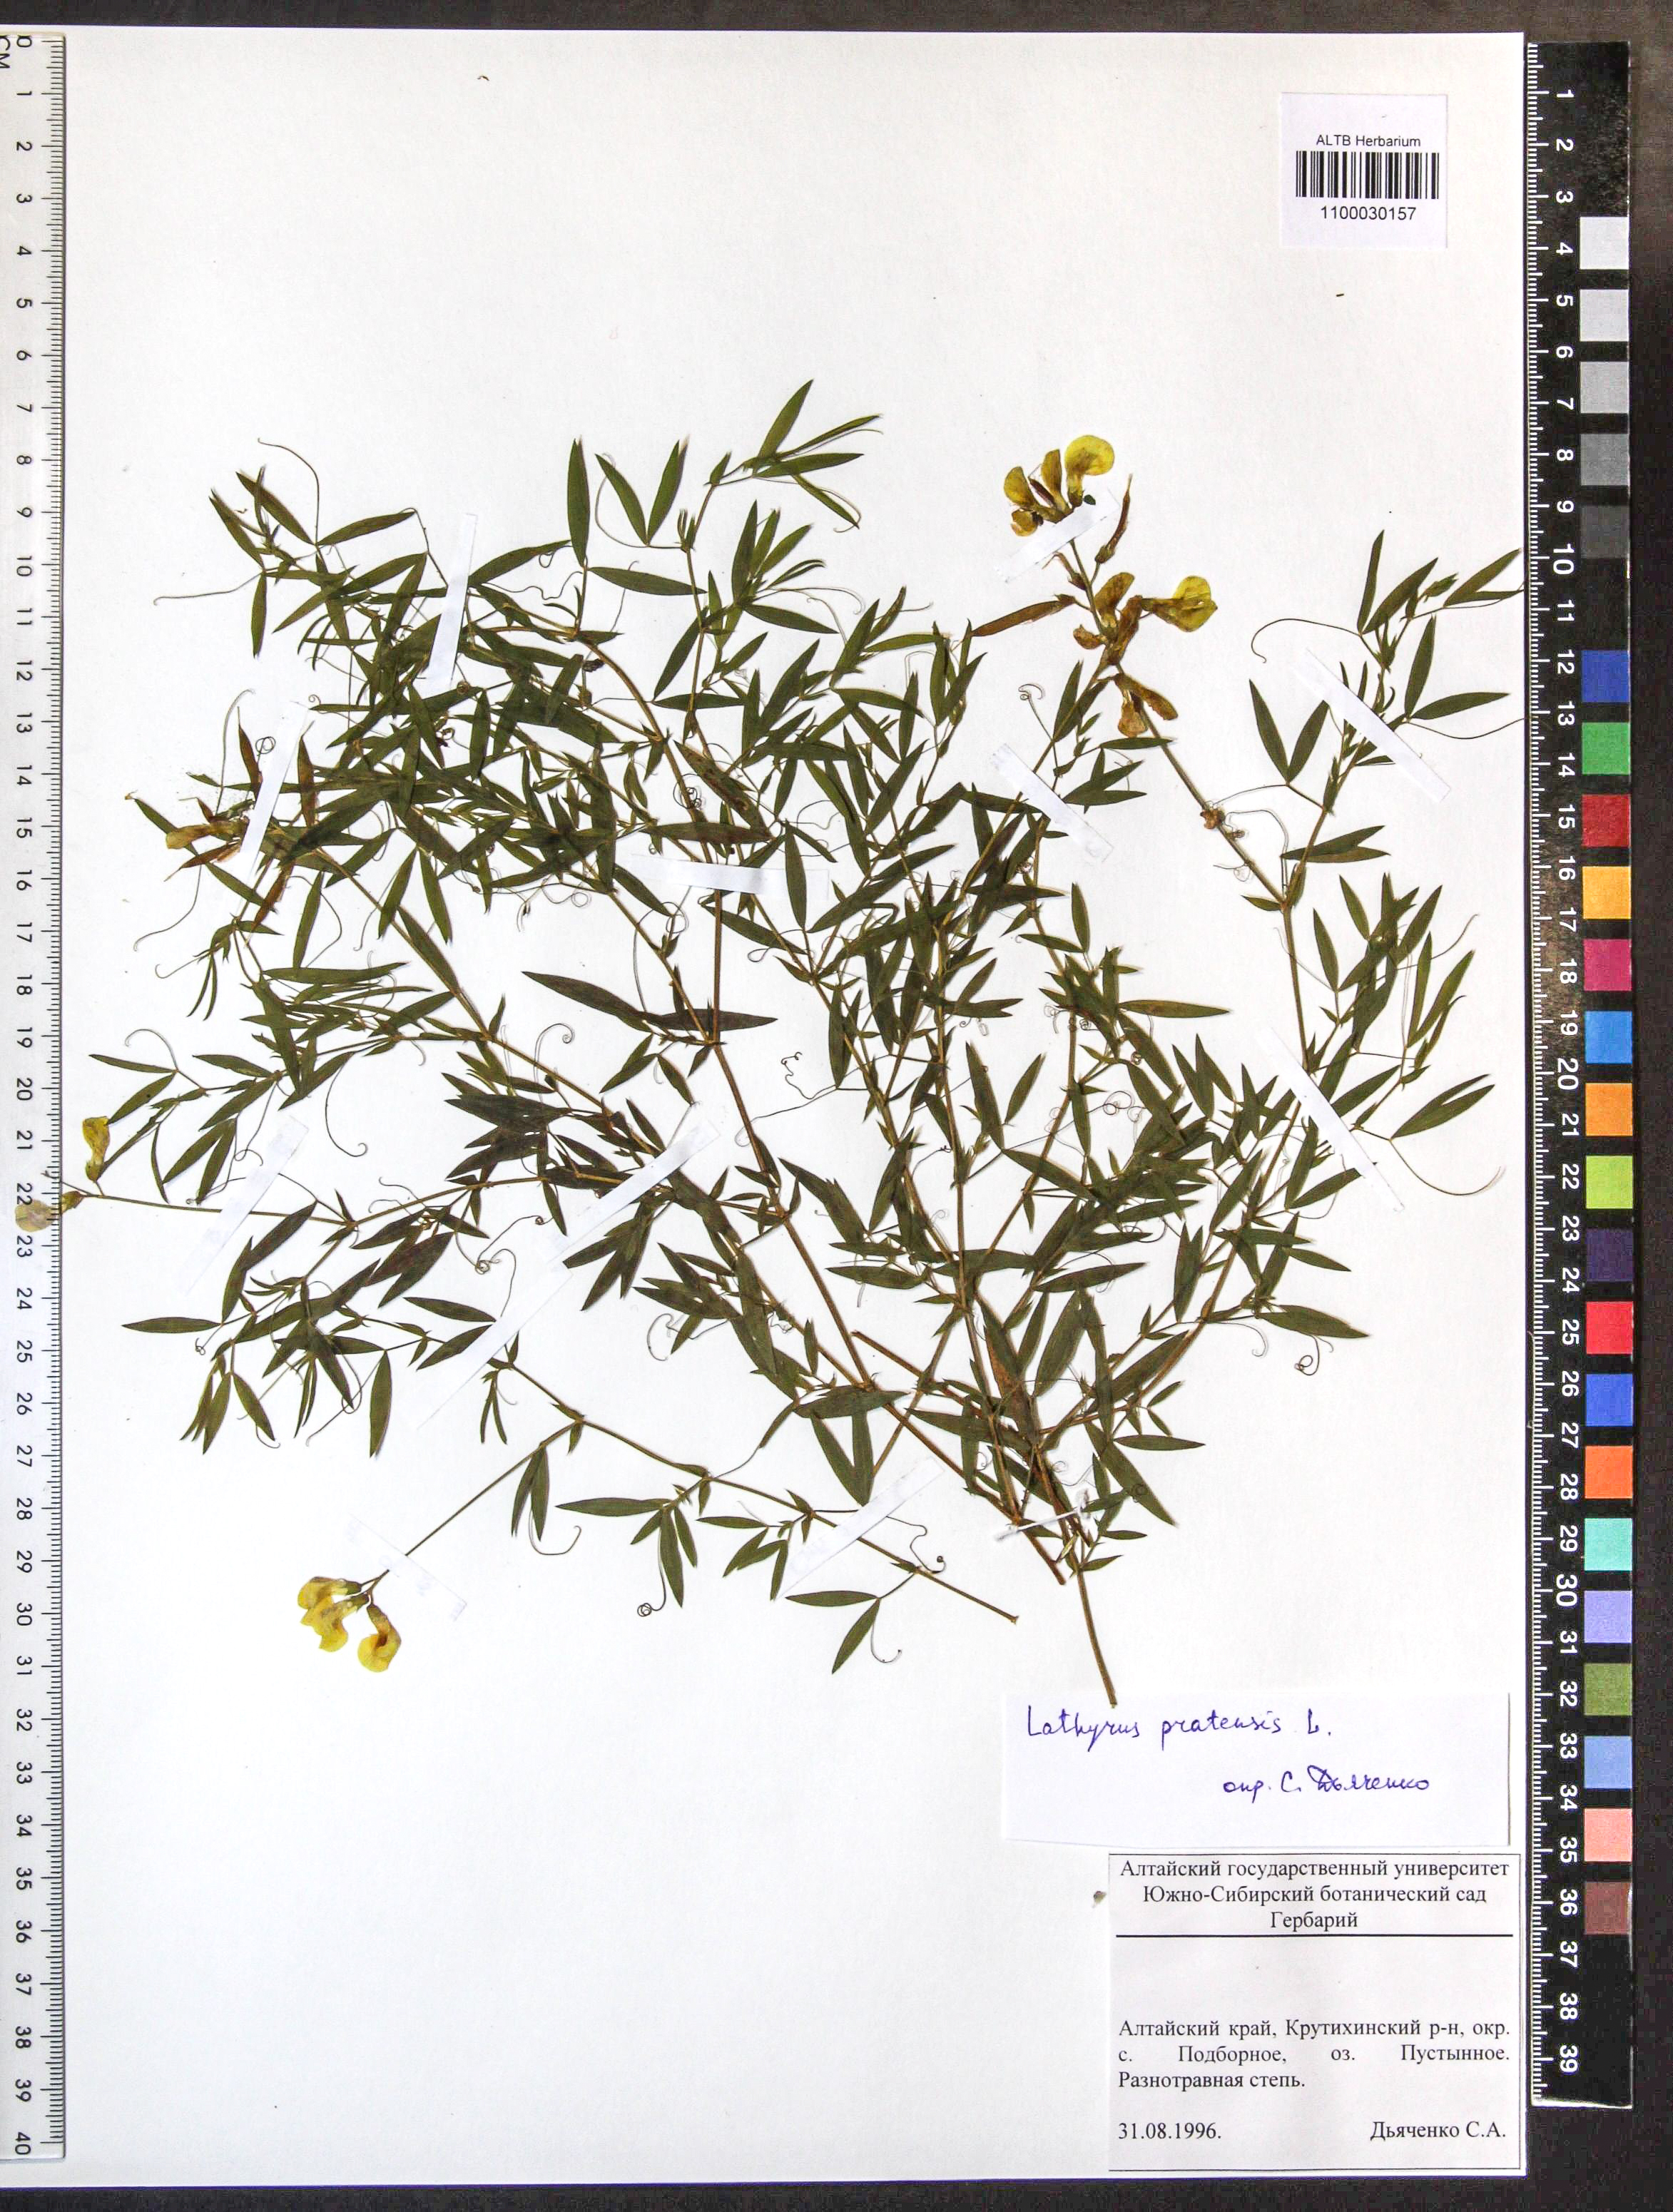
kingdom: Plantae
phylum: Tracheophyta
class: Magnoliopsida
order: Fabales
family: Fabaceae
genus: Lathyrus
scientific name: Lathyrus pratensis
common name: Meadow vetchling
